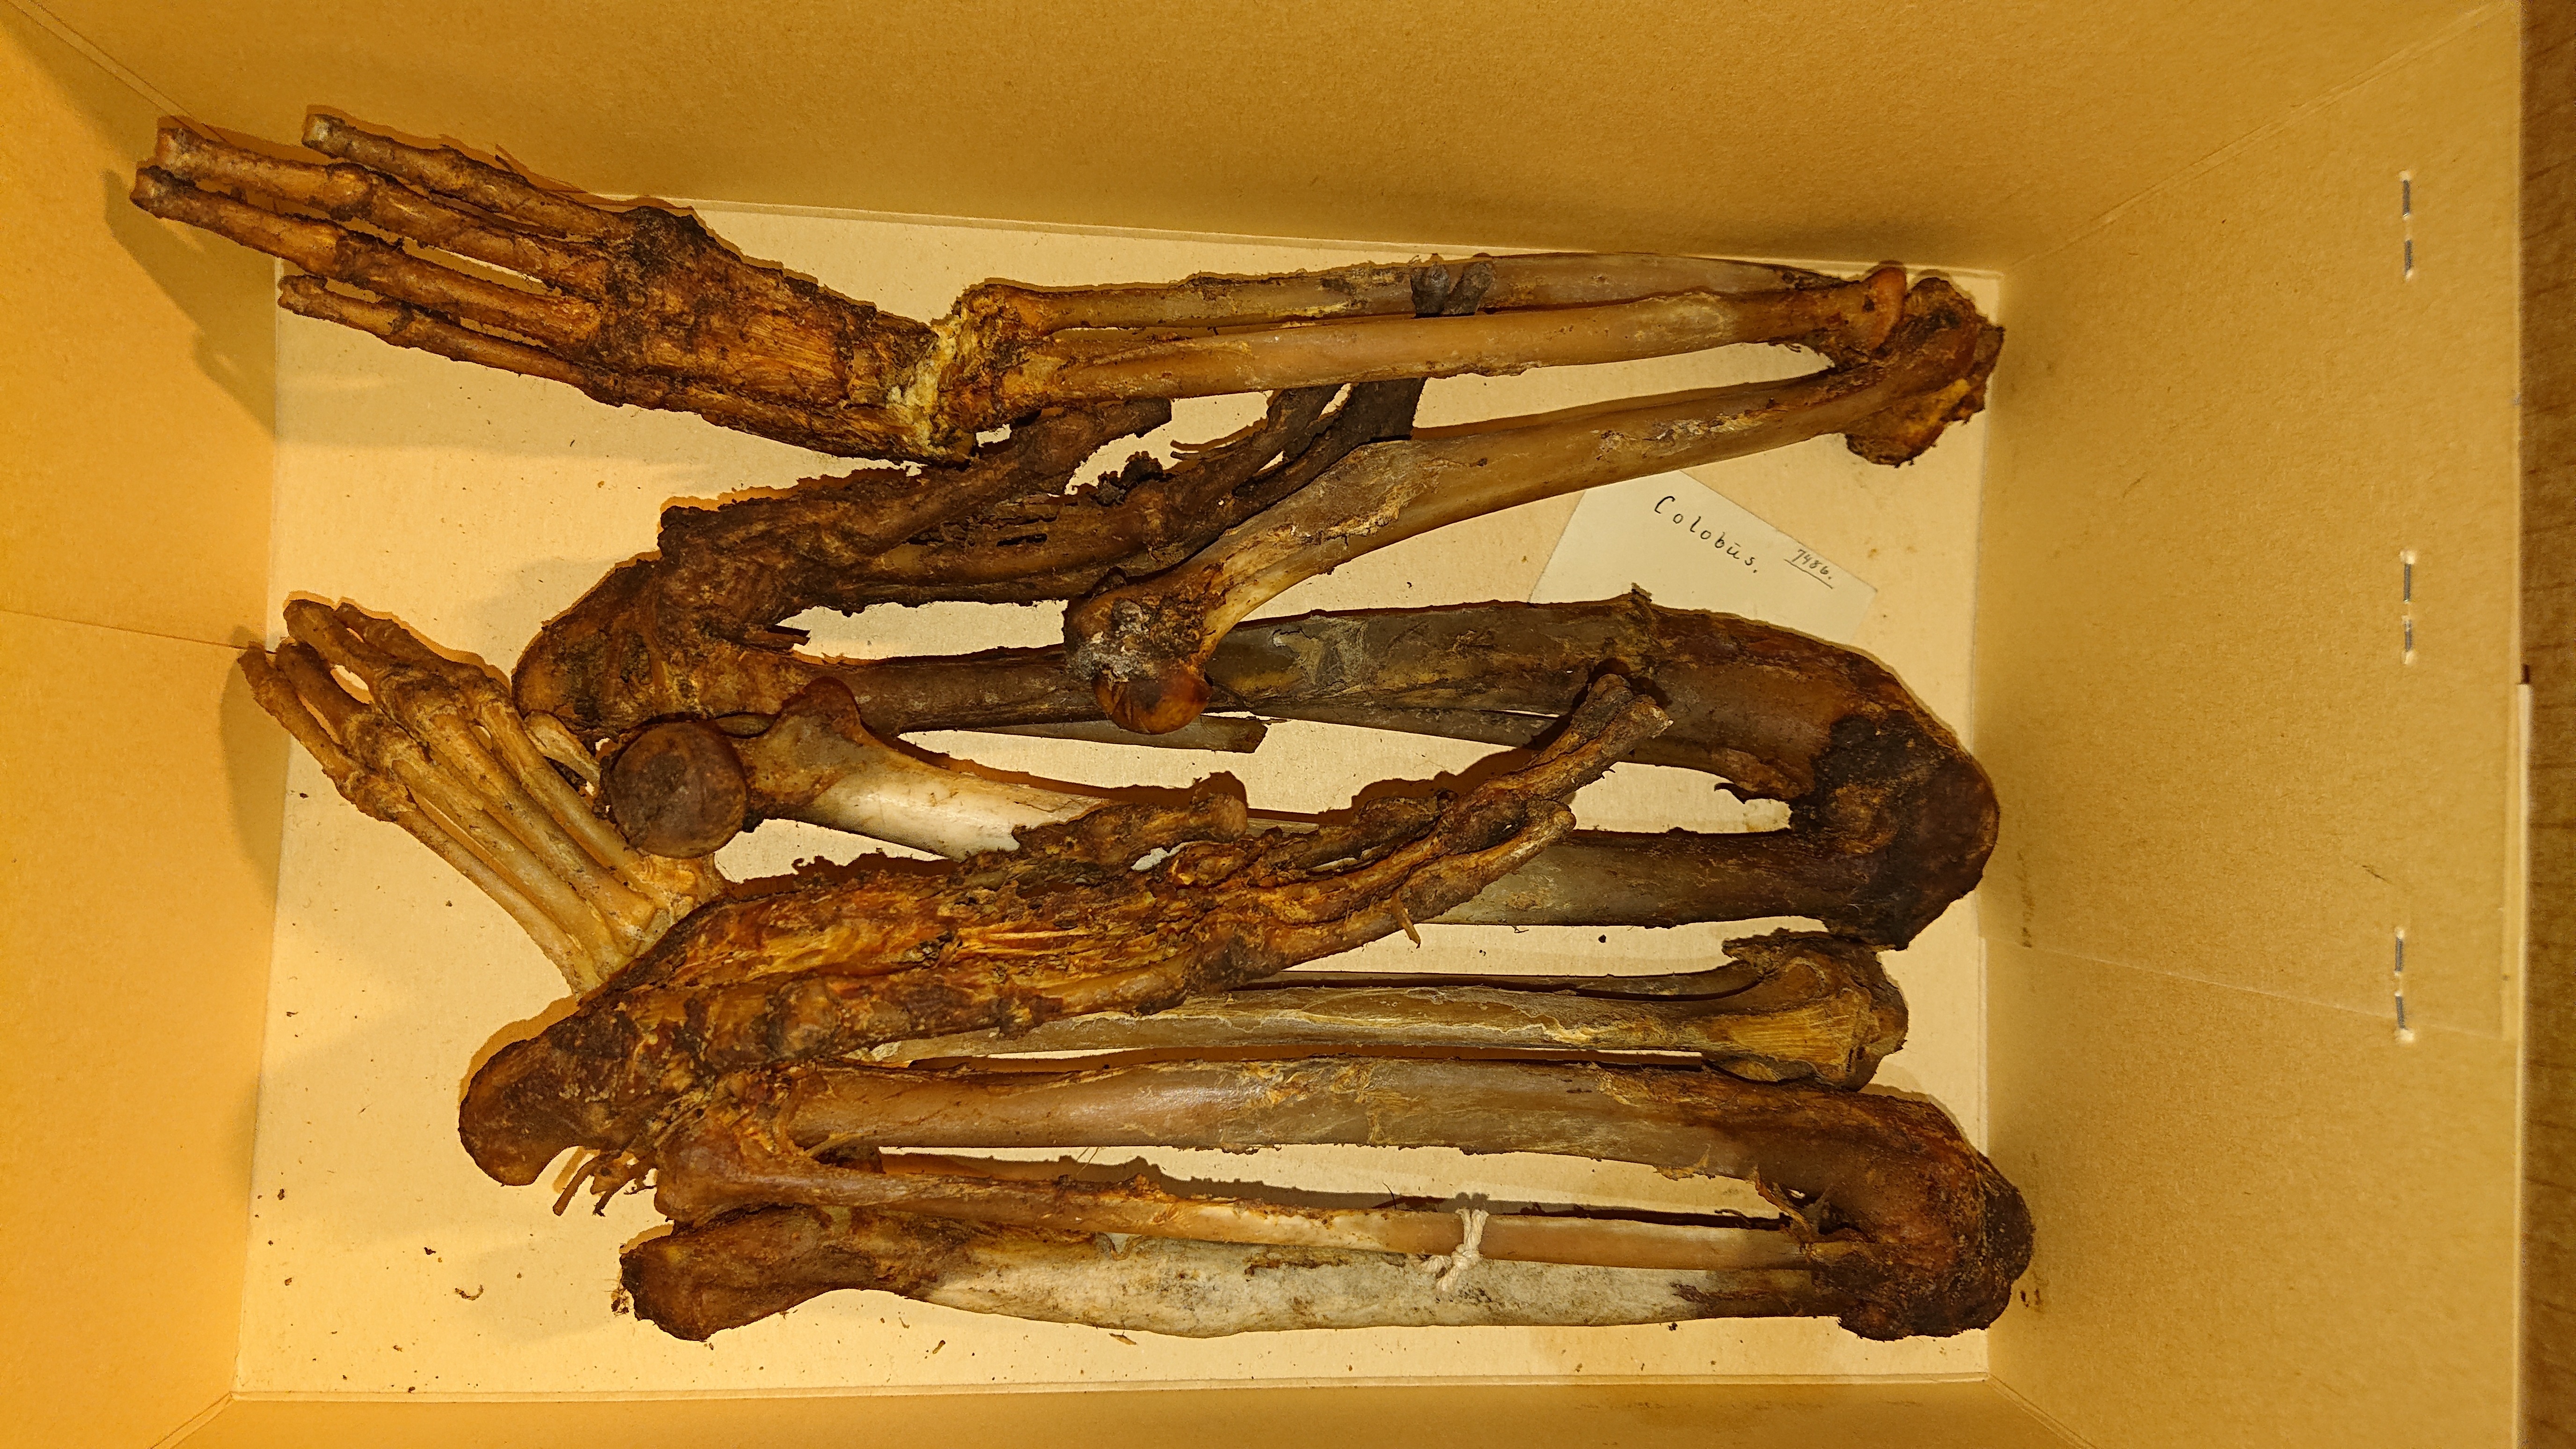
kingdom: Animalia
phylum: Chordata
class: Mammalia
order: Primates
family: Cercopithecidae
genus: Colobus
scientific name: Colobus
